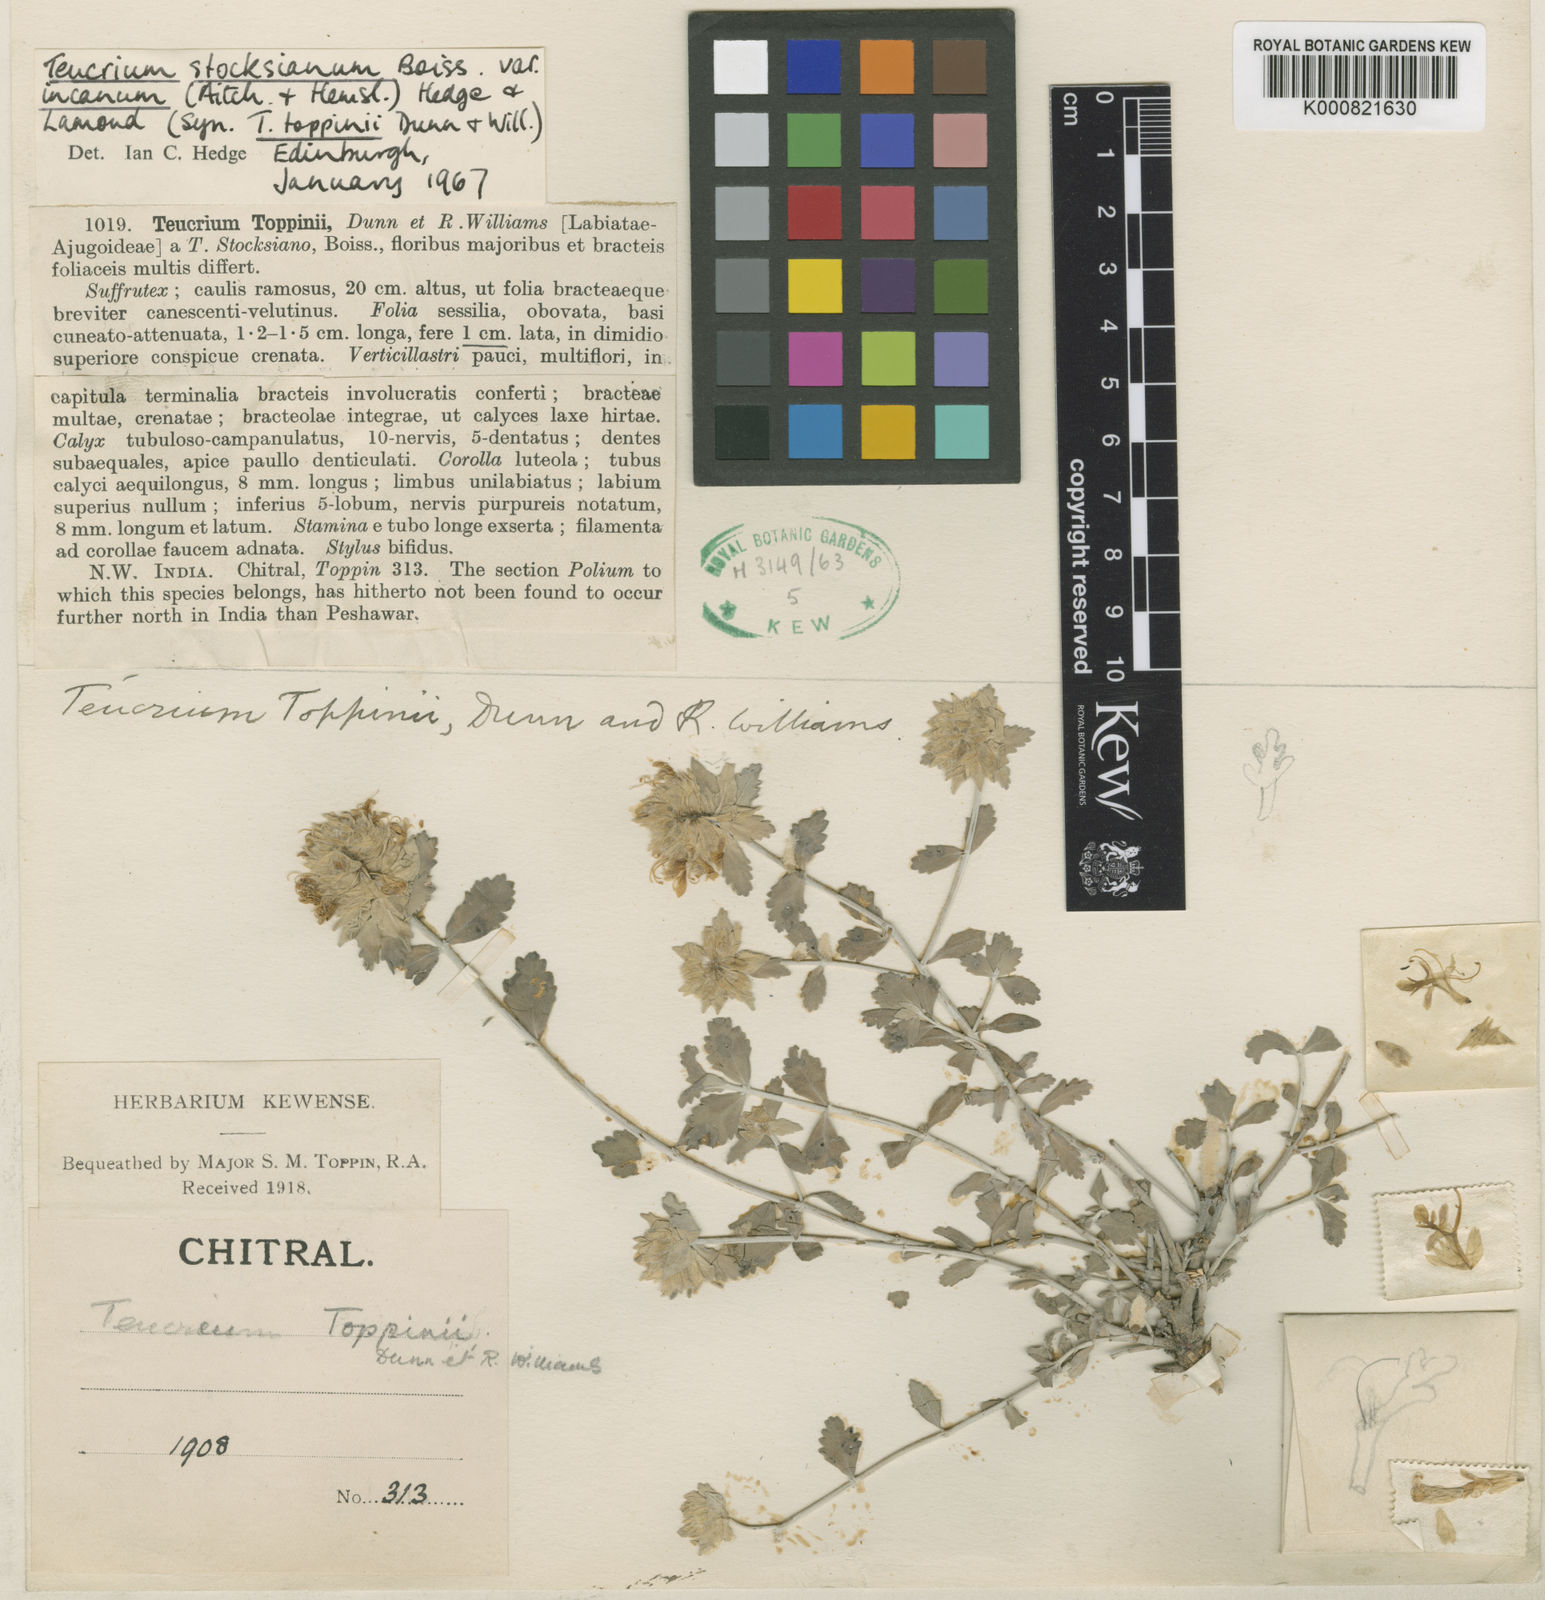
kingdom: Plantae
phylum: Tracheophyta
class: Magnoliopsida
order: Lamiales
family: Lamiaceae
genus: Teucrium
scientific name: Teucrium stocksianum
